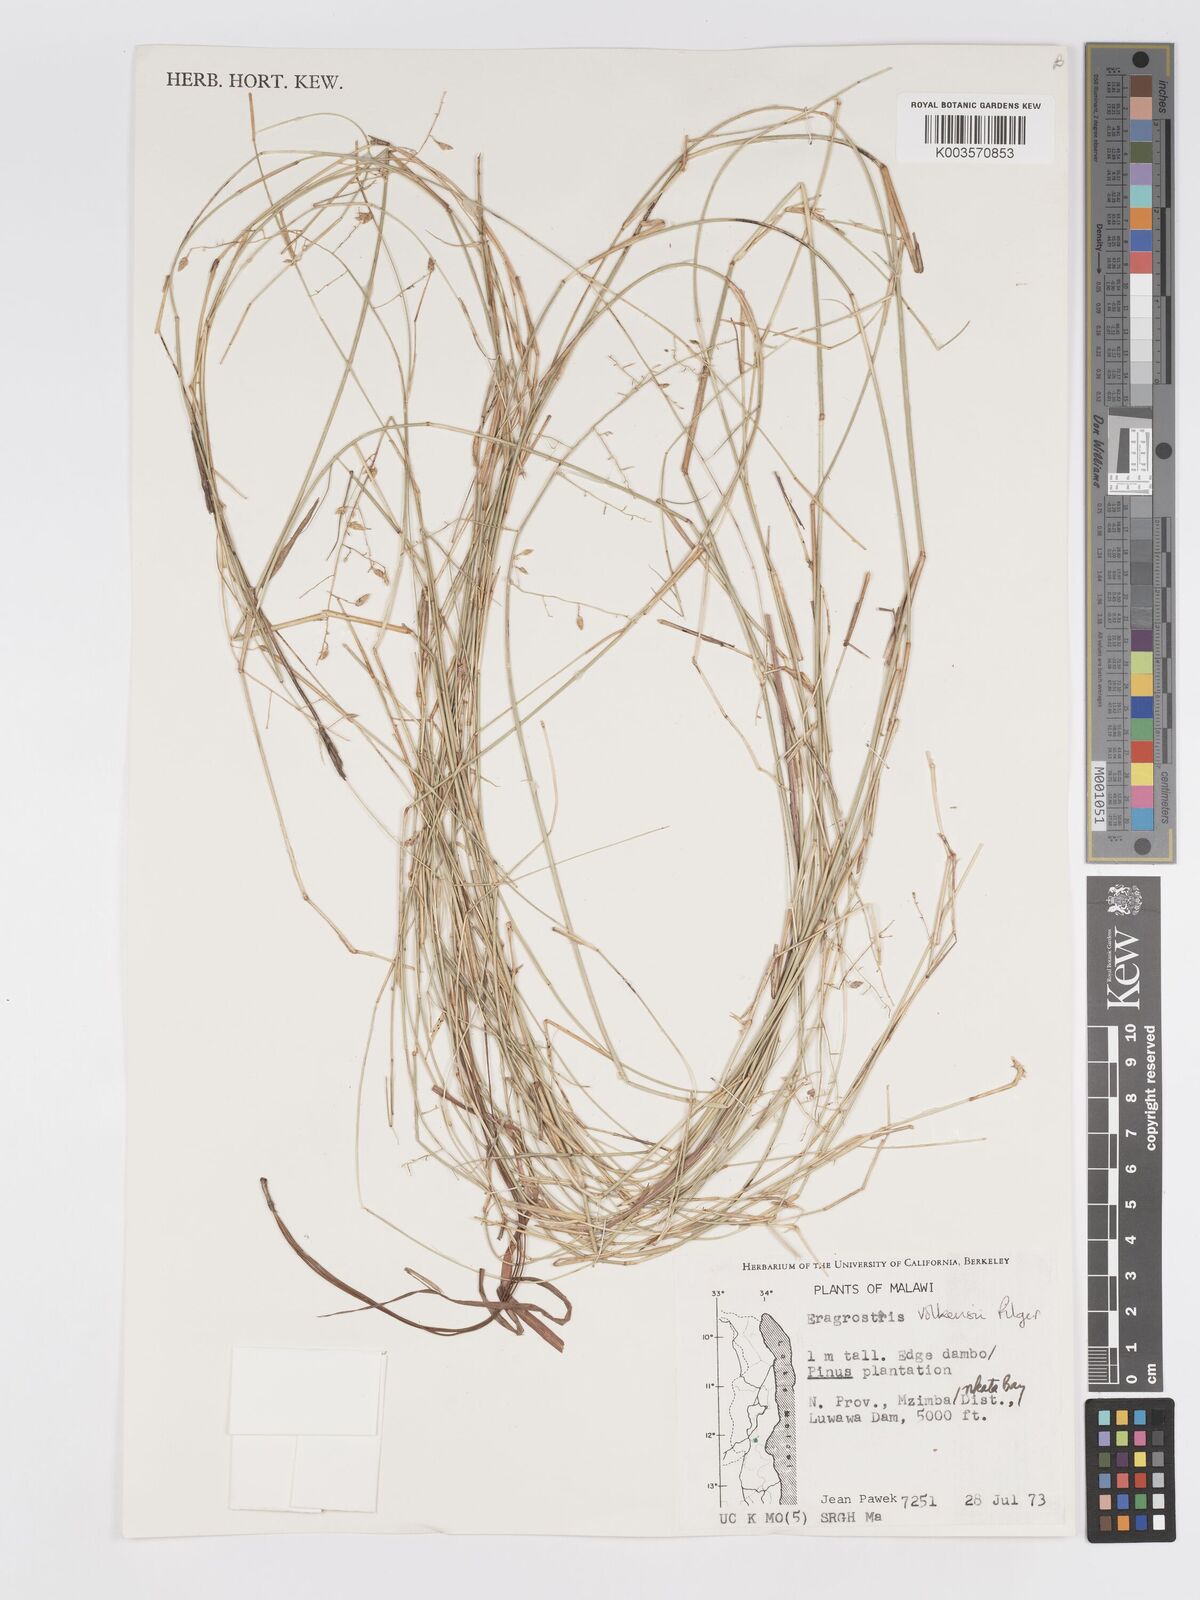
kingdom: Plantae
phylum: Tracheophyta
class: Liliopsida
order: Poales
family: Poaceae
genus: Eragrostis
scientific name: Eragrostis volkensii
